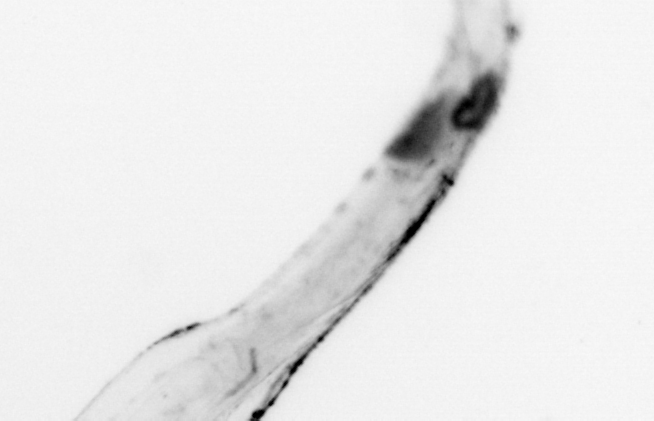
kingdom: Animalia
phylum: Chaetognatha
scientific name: Chaetognatha
